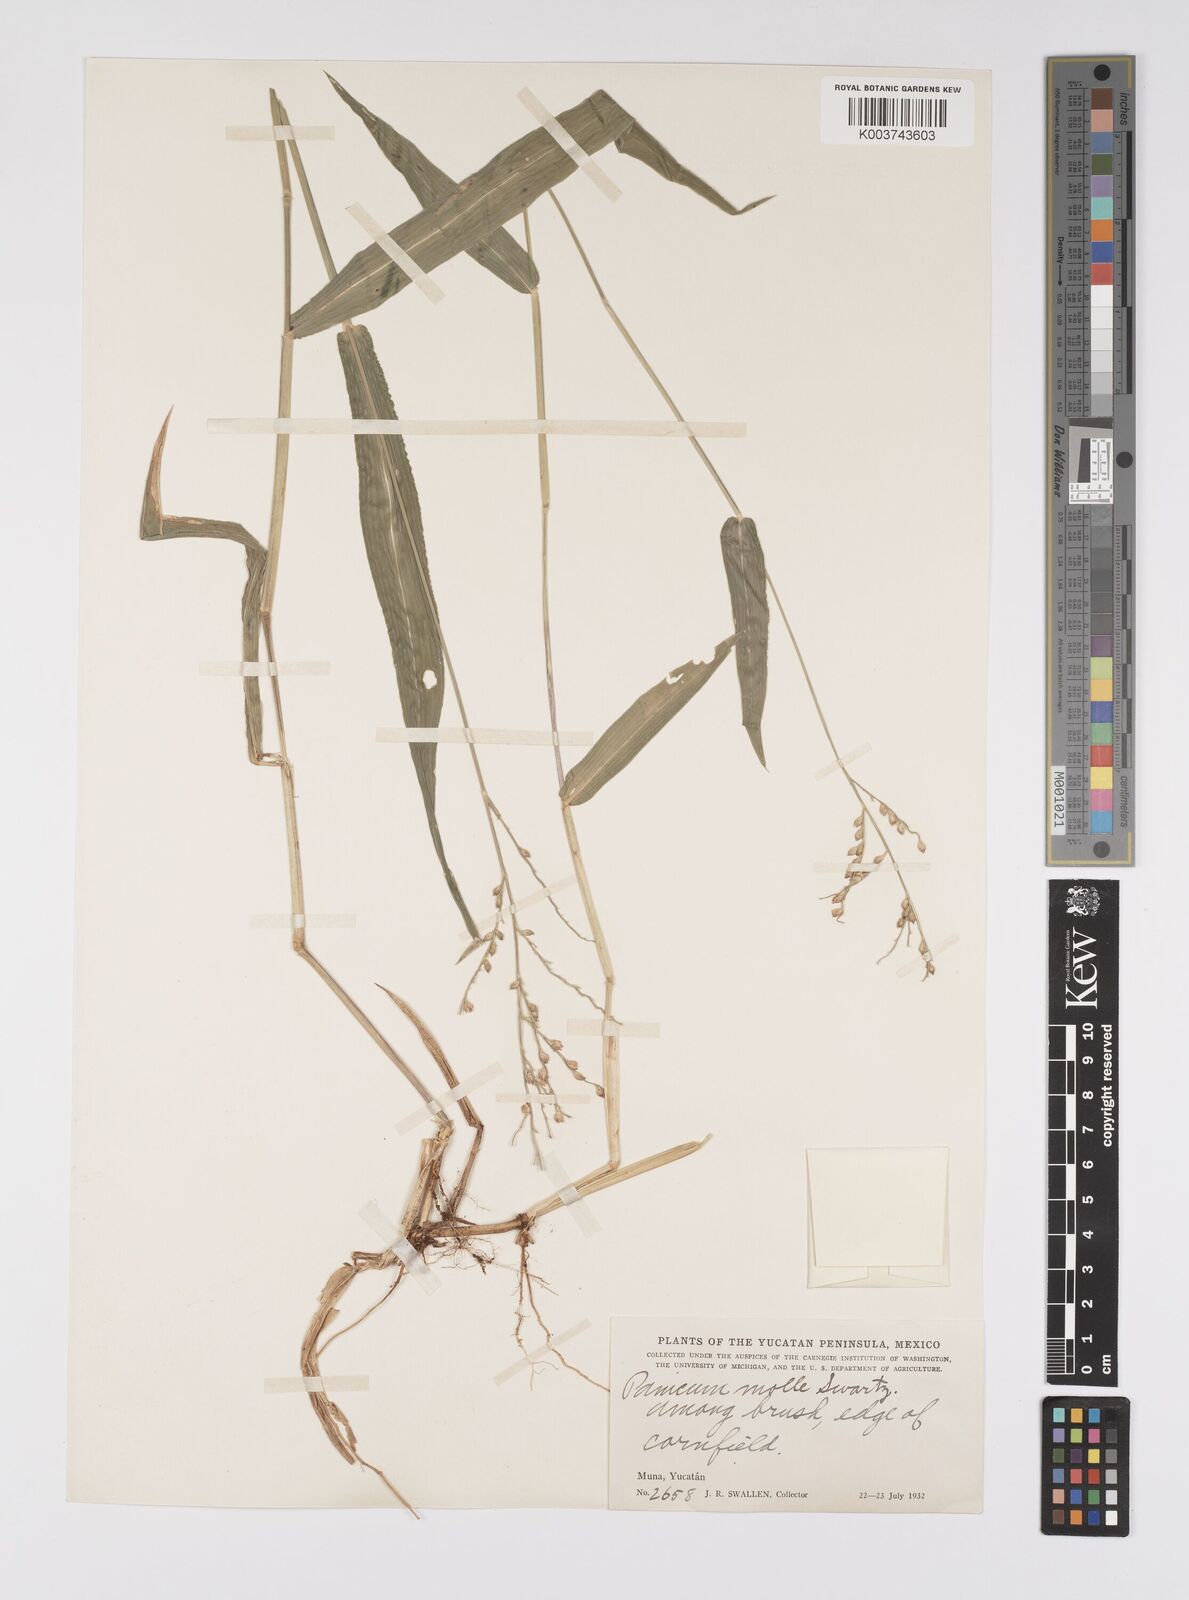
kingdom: Plantae
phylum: Tracheophyta
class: Liliopsida
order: Poales
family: Poaceae
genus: Urochloa
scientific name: Urochloa mollis
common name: Grass
